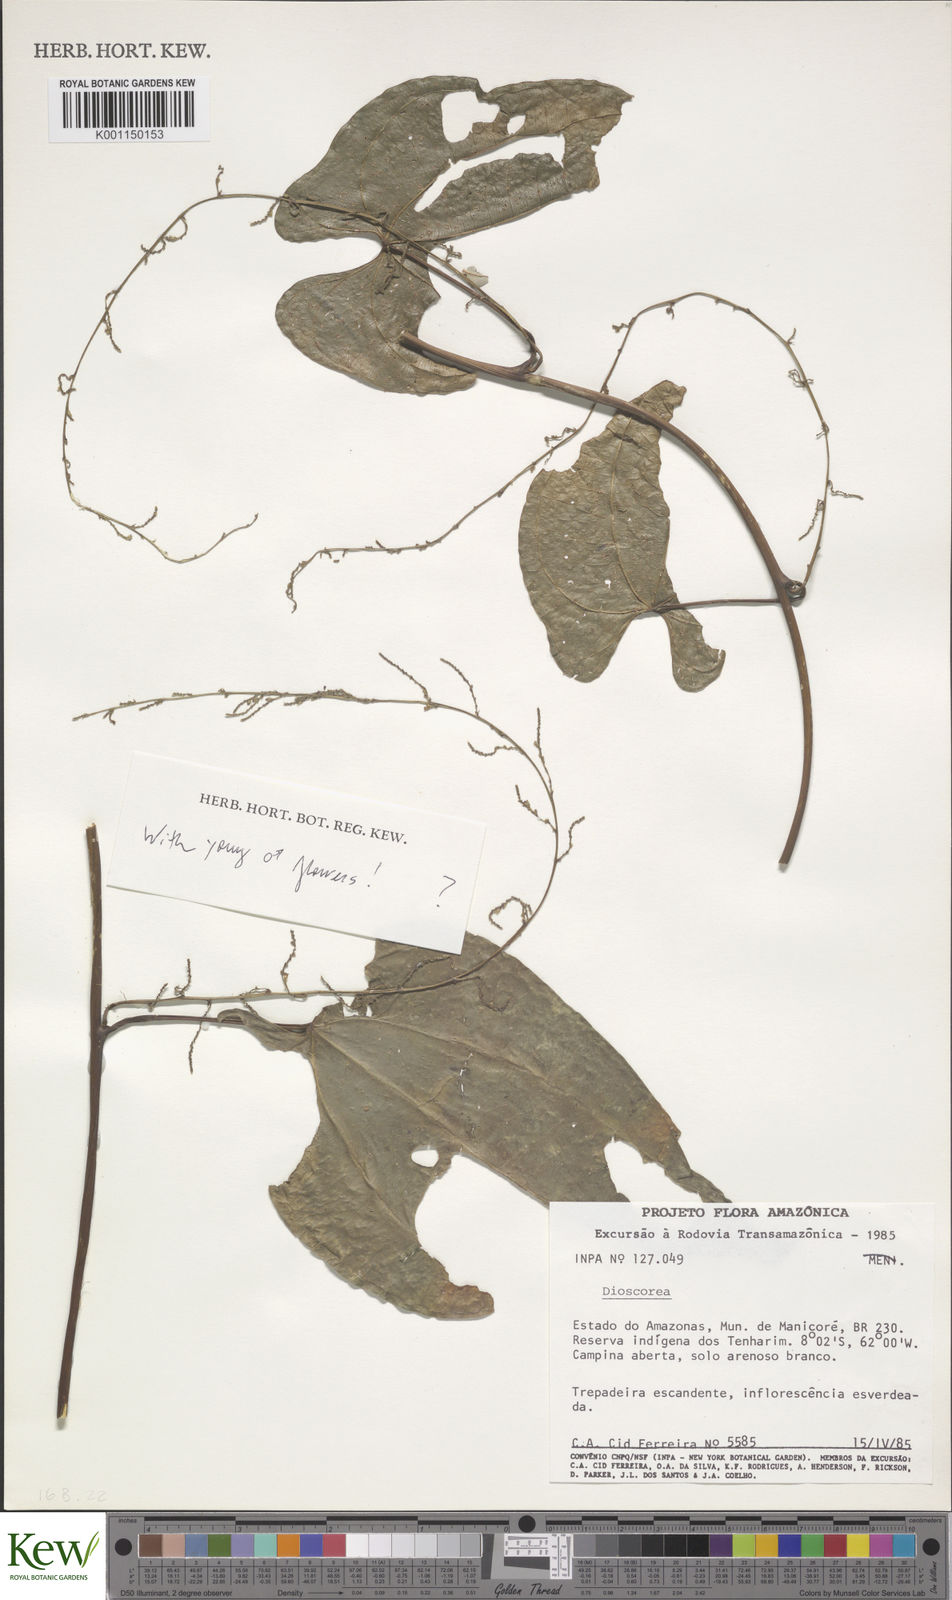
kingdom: Plantae
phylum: Tracheophyta
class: Liliopsida
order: Dioscoreales
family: Dioscoreaceae
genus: Dioscorea
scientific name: Dioscorea
